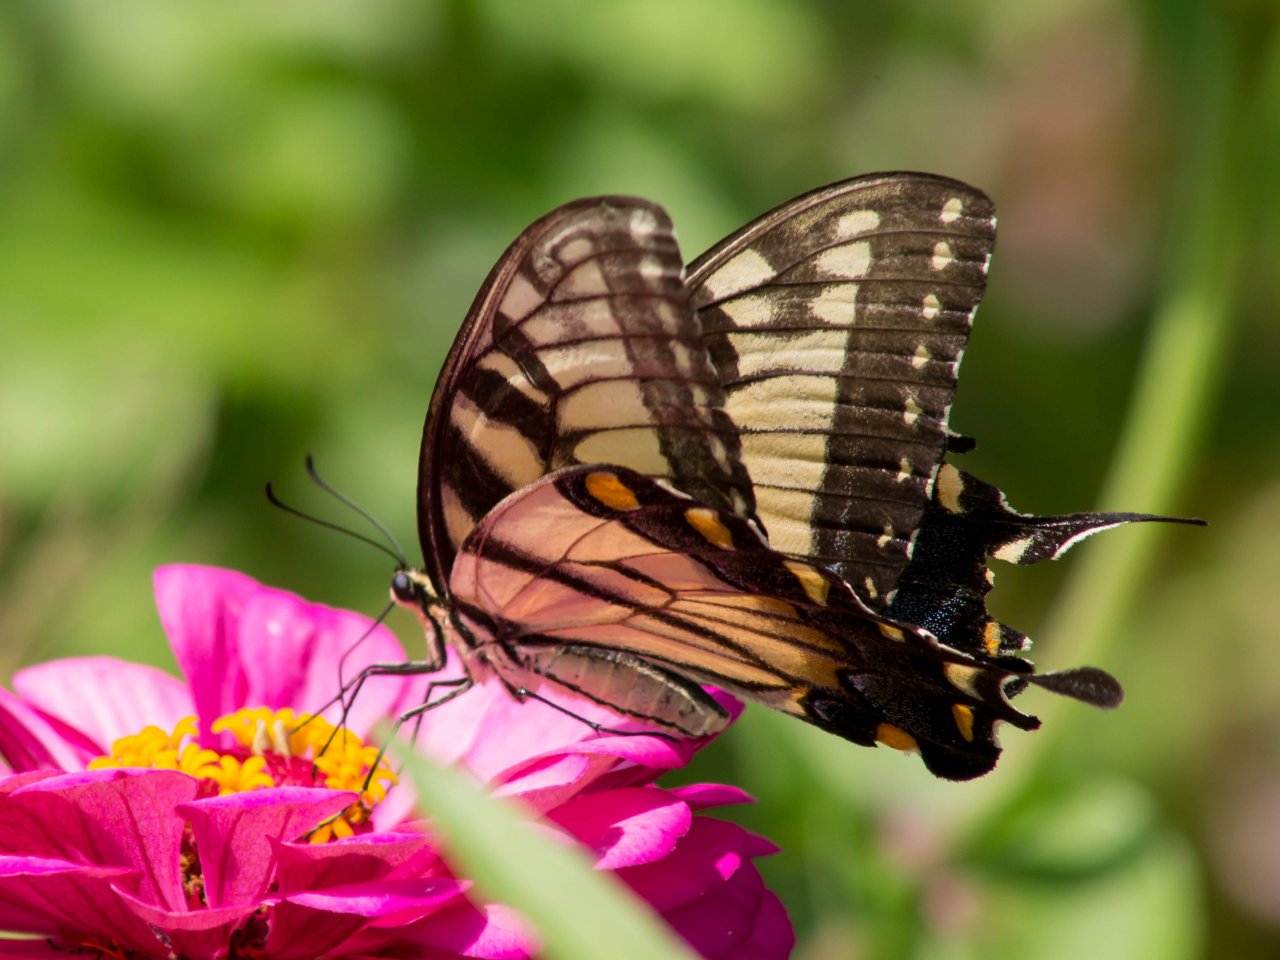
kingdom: Animalia
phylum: Arthropoda
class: Insecta
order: Lepidoptera
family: Papilionidae
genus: Pterourus
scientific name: Pterourus glaucus
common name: Eastern Tiger Swallowtail
